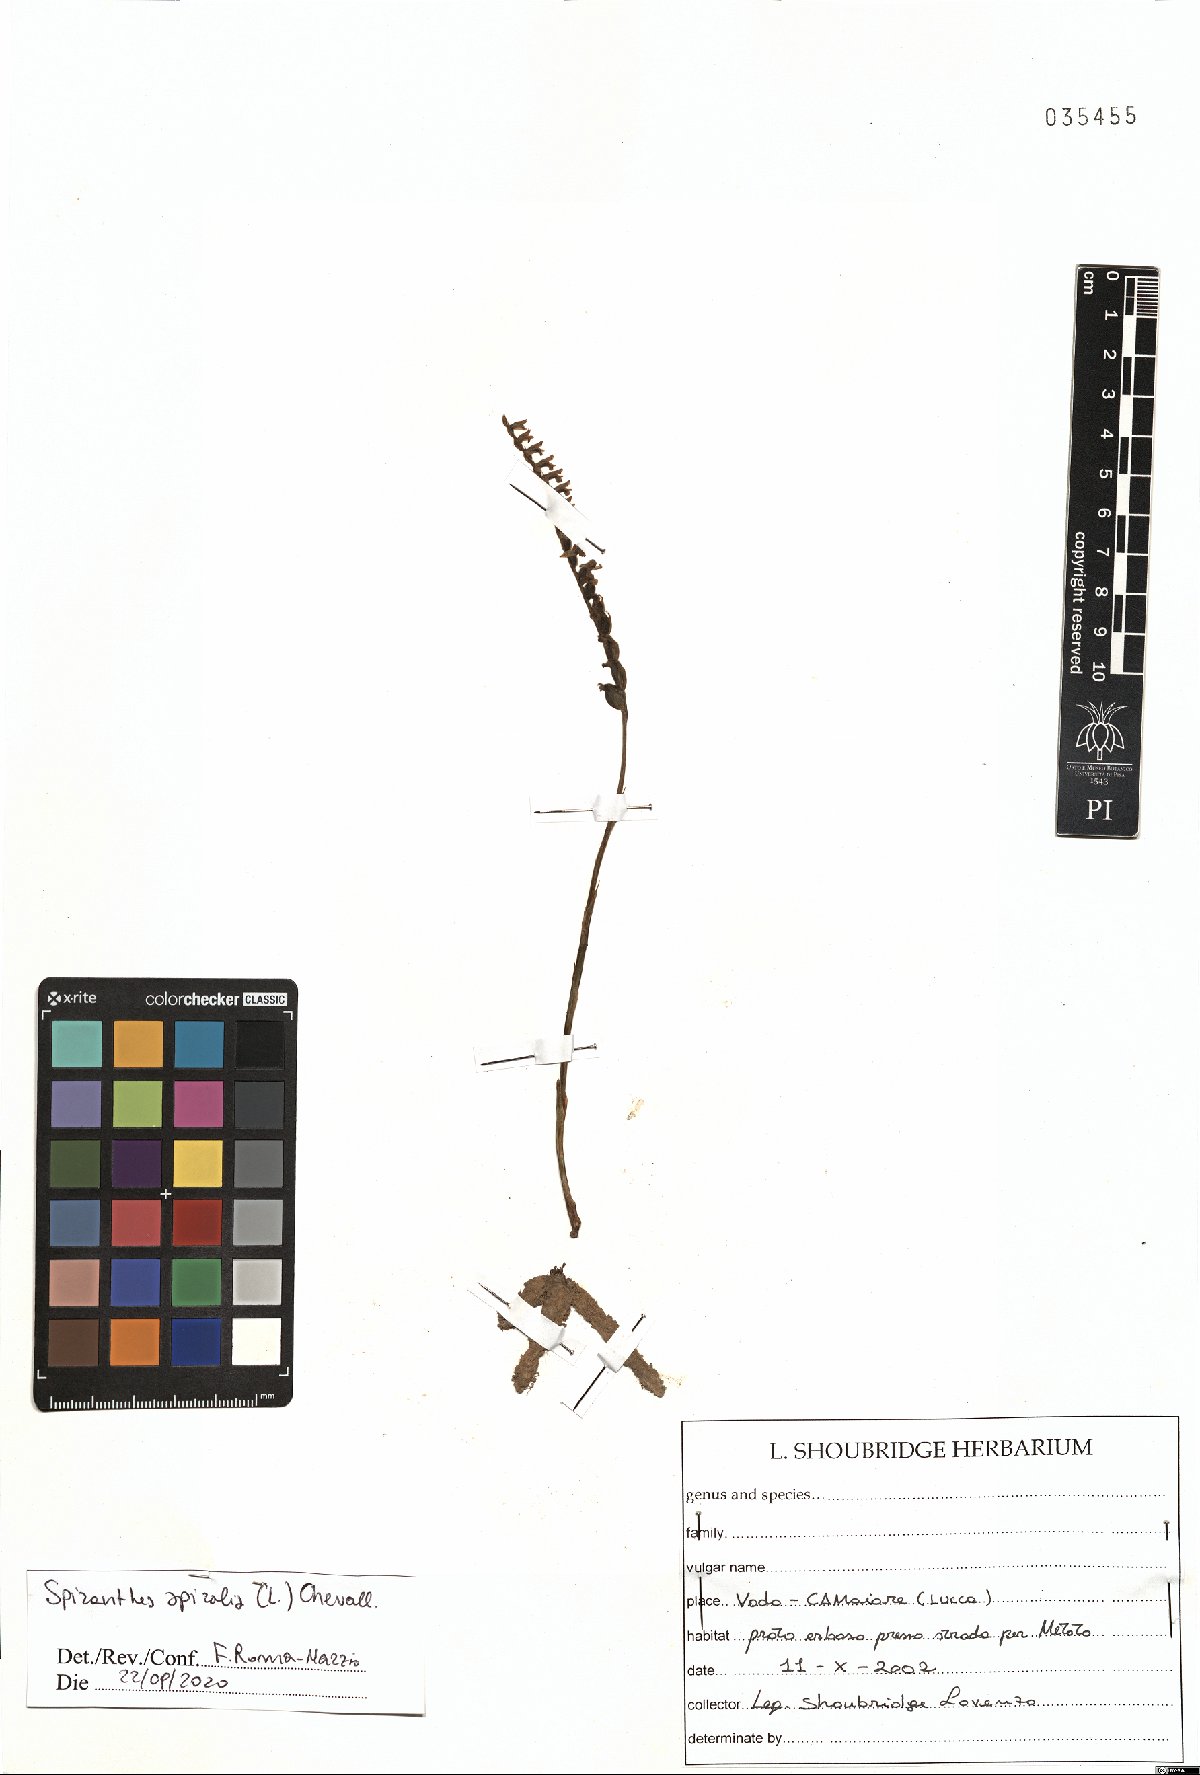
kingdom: Plantae
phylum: Tracheophyta
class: Liliopsida
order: Asparagales
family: Orchidaceae
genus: Spiranthes
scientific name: Spiranthes spiralis
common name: Autumn lady's-tresses
